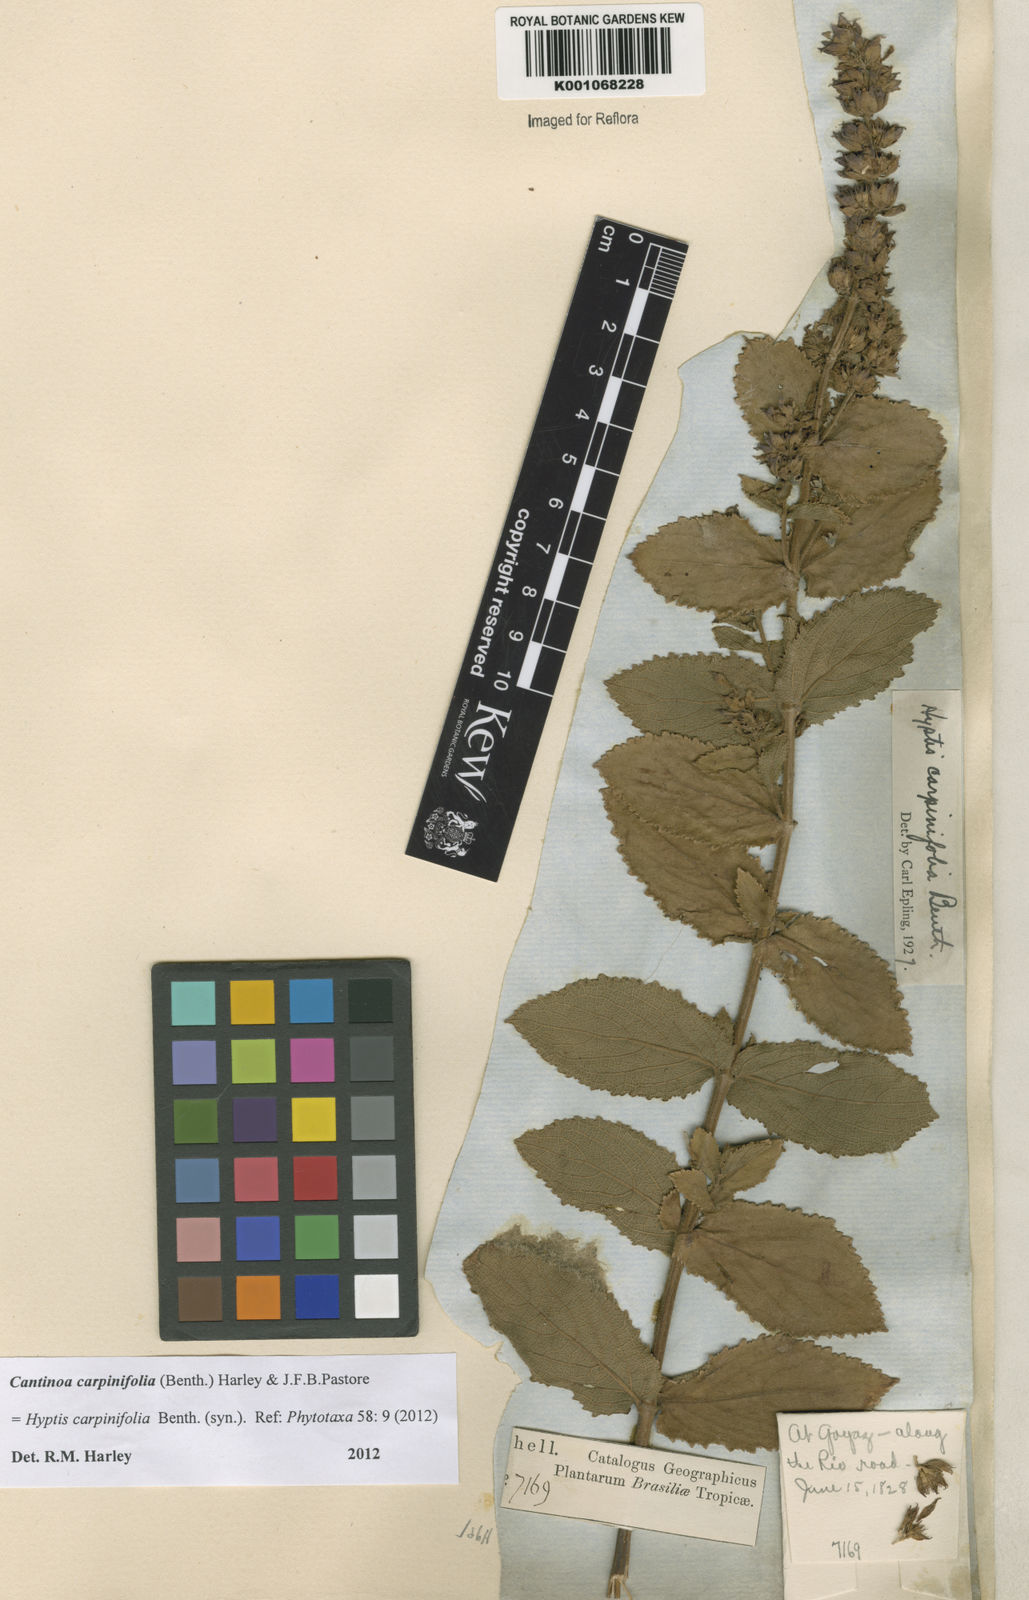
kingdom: Plantae
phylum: Tracheophyta
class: Magnoliopsida
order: Lamiales
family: Lamiaceae
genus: Cantinoa
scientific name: Cantinoa carpinifolia
